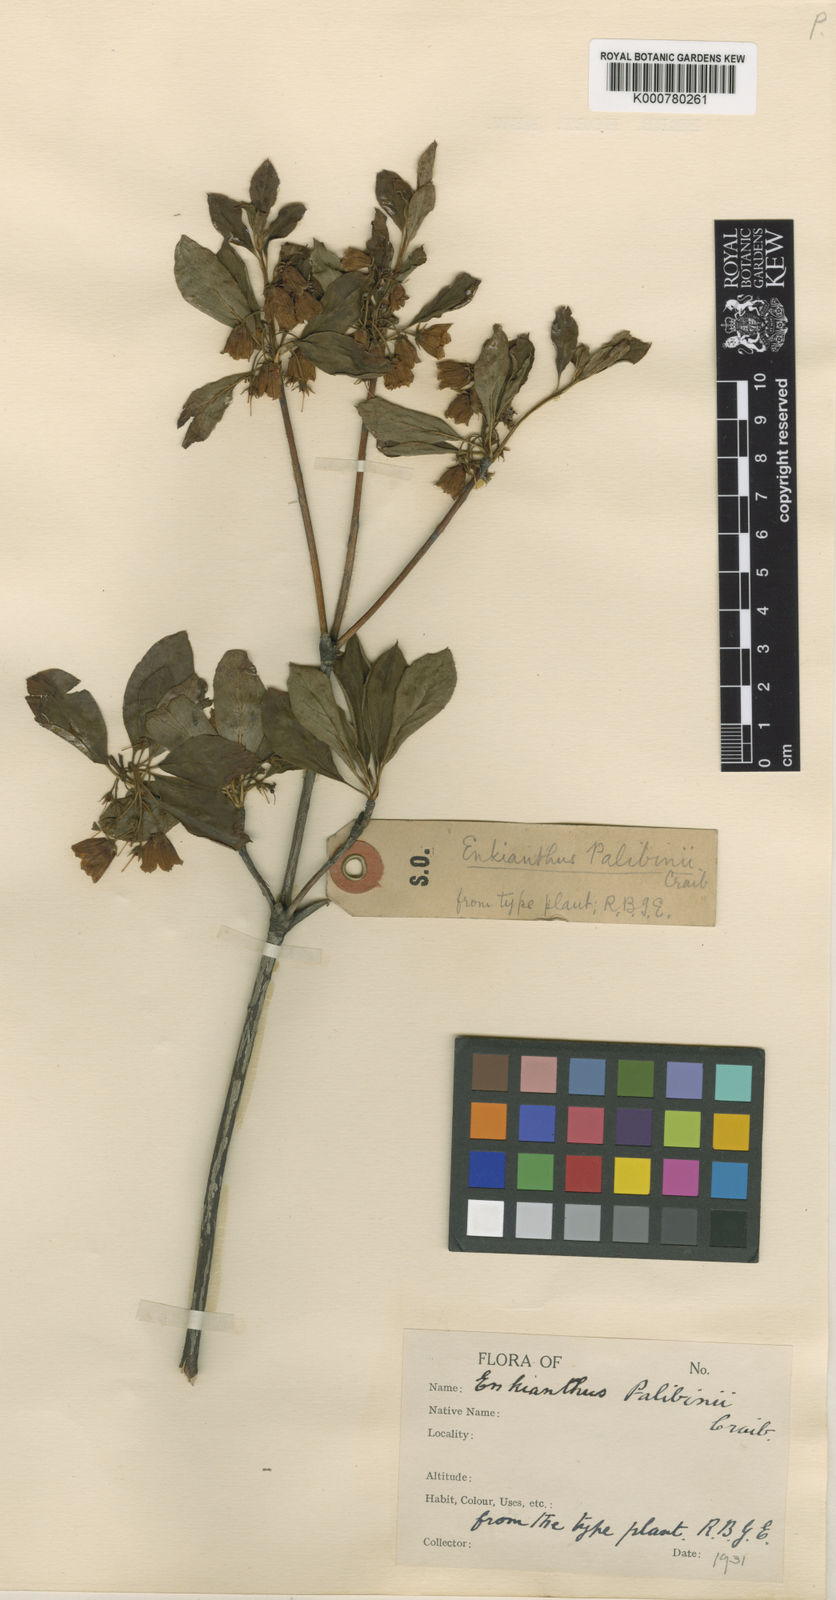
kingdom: Plantae
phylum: Tracheophyta
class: Magnoliopsida
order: Ericales
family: Ericaceae
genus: Enkianthus
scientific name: Enkianthus campanulatus
